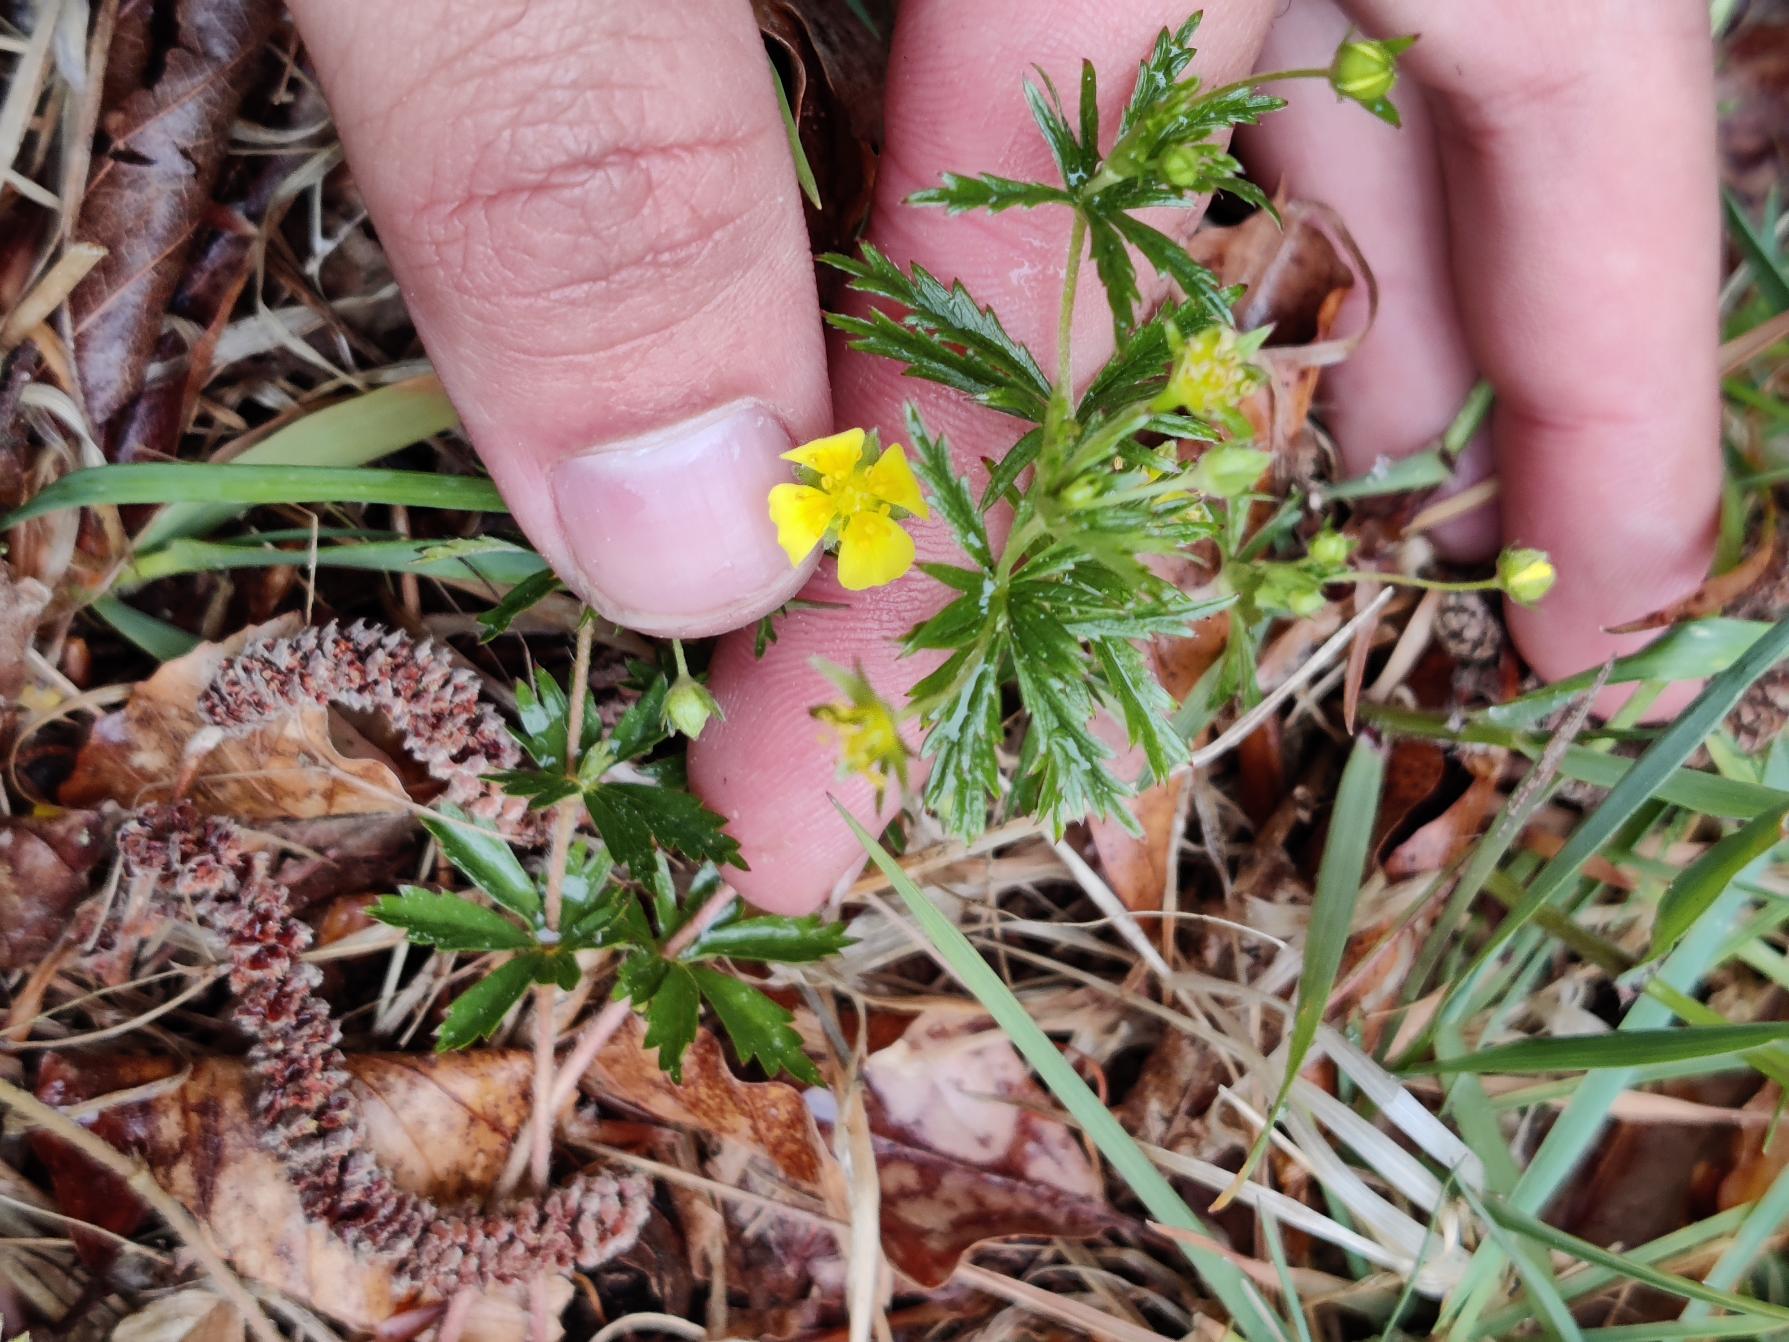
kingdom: Plantae
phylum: Tracheophyta
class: Magnoliopsida
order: Rosales
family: Rosaceae
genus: Potentilla
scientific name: Potentilla erecta
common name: Tormentil
